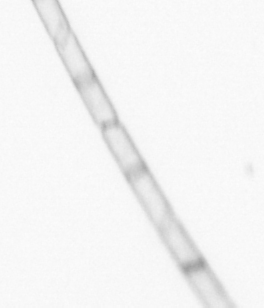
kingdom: Chromista
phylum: Ochrophyta
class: Bacillariophyceae
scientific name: Bacillariophyceae
